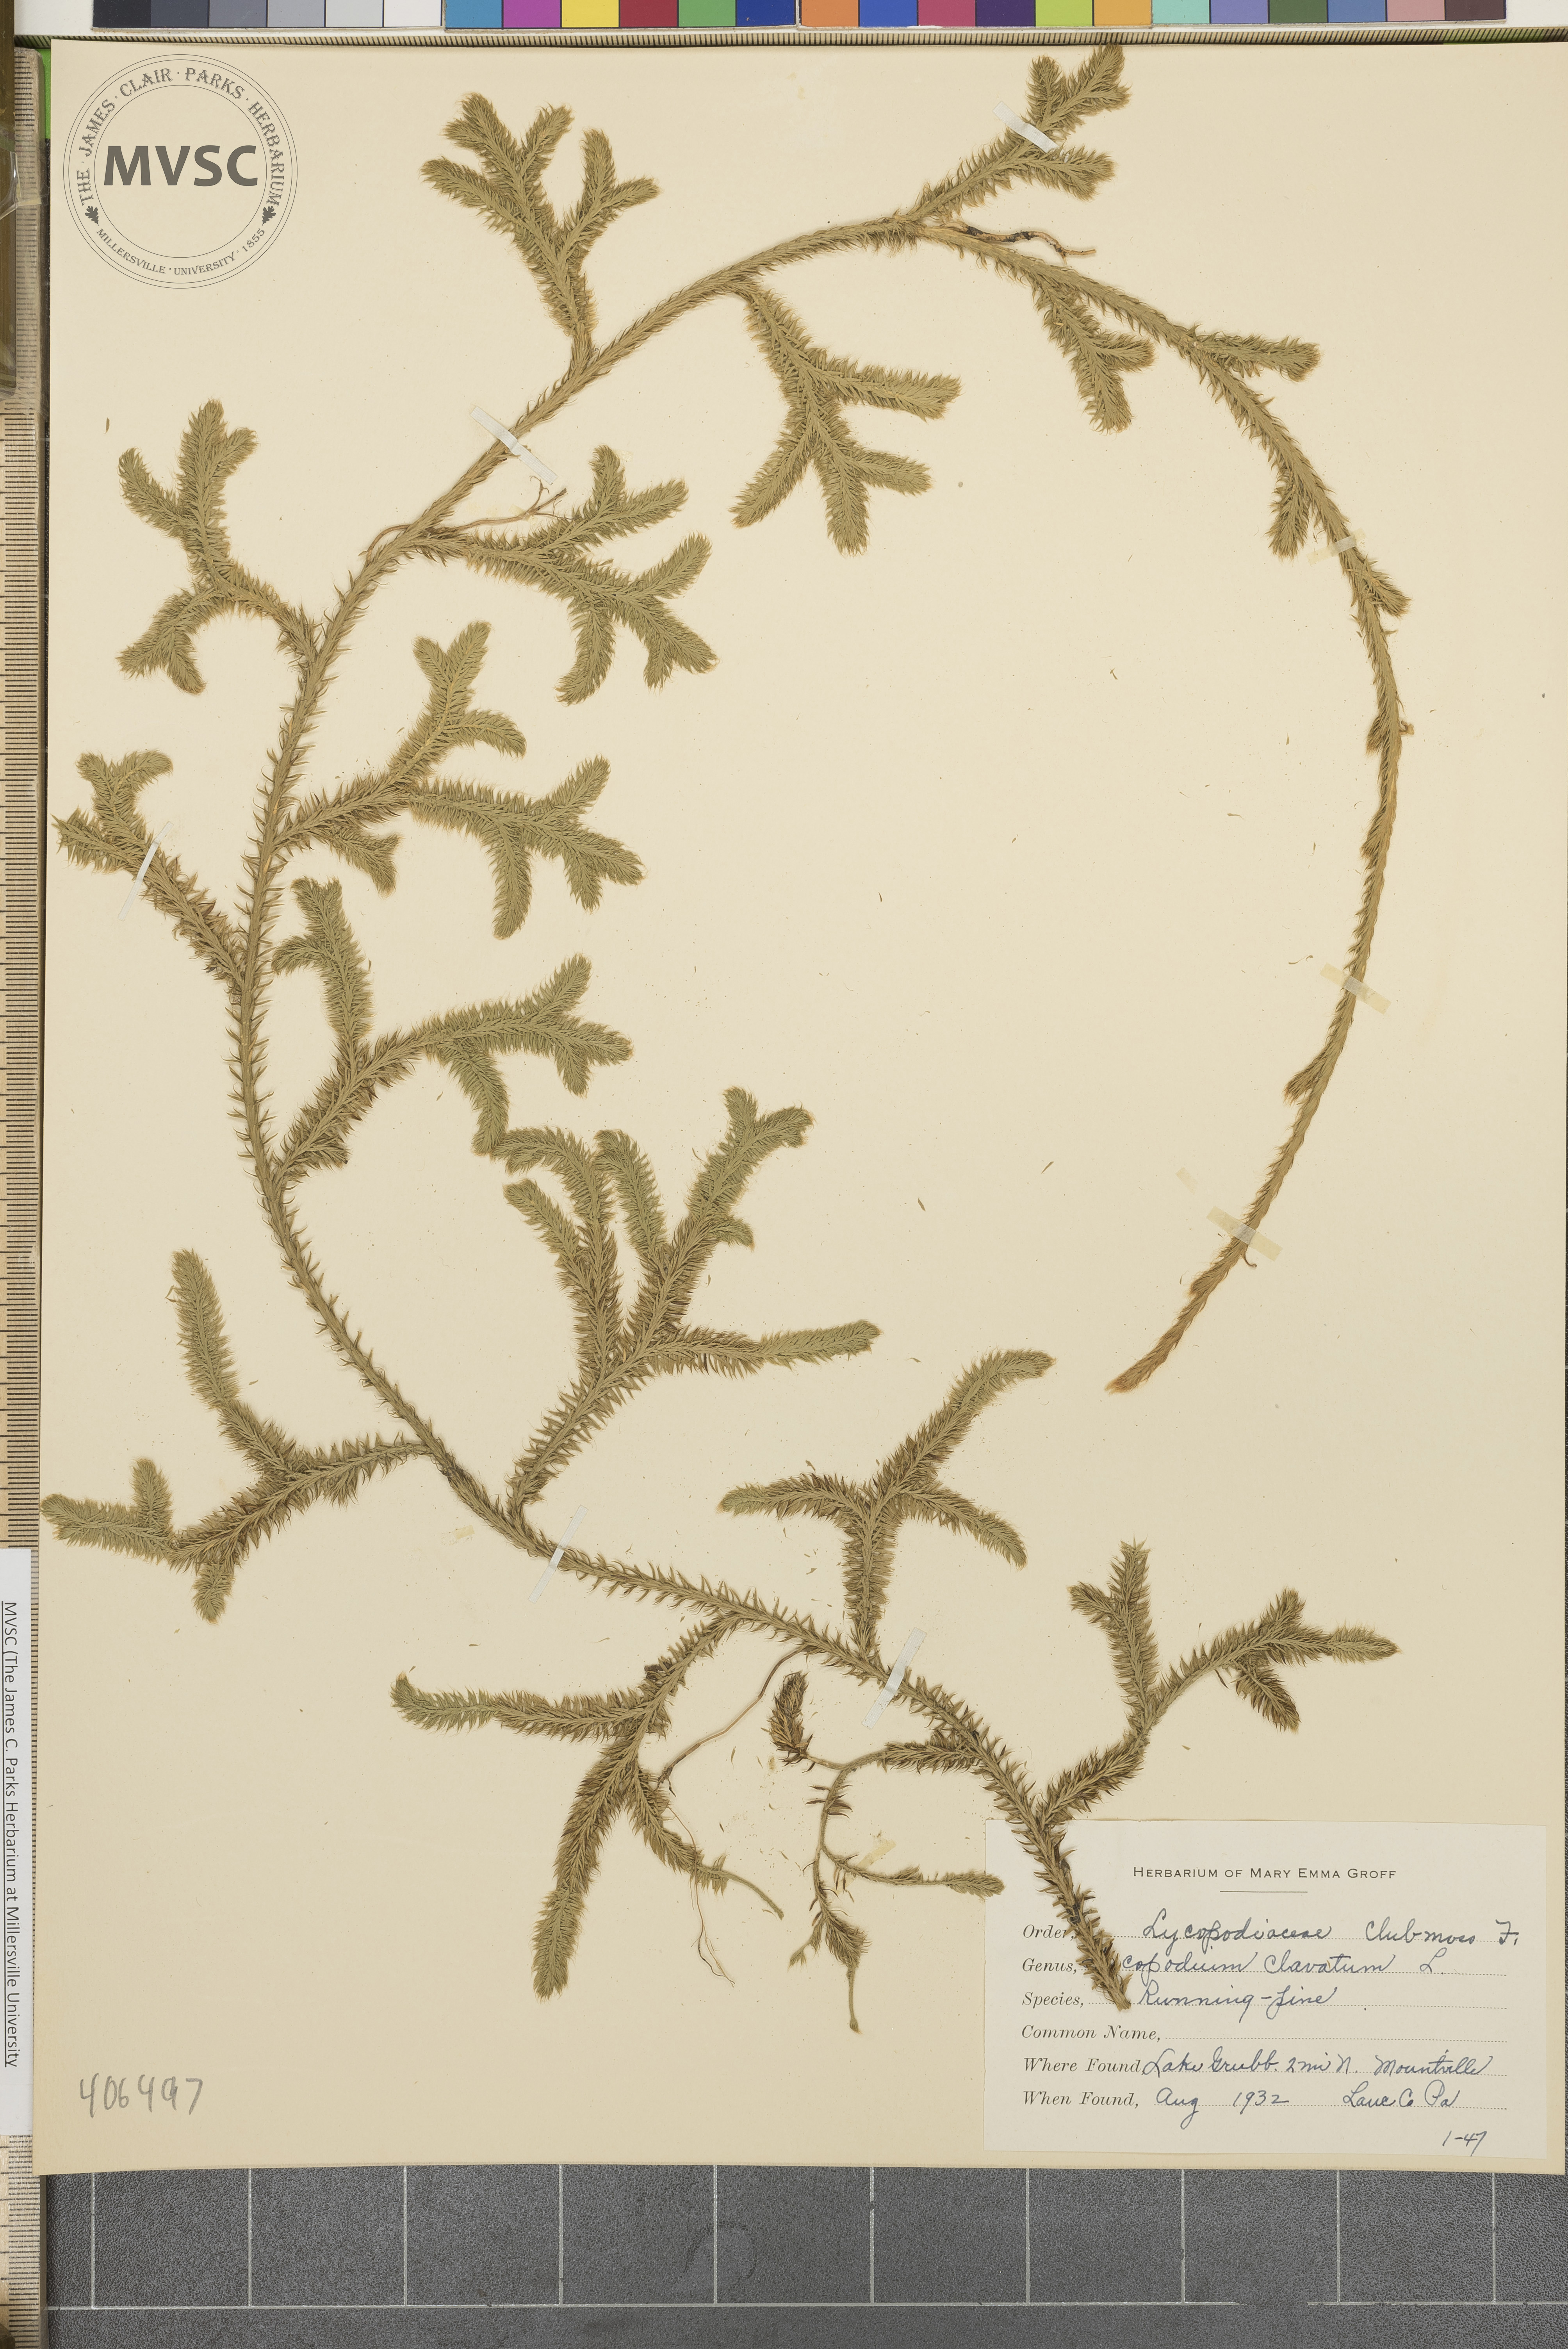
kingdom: Plantae
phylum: Tracheophyta
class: Lycopodiopsida
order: Lycopodiales
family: Lycopodiaceae
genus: Lycopodium
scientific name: Lycopodium clavatum
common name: Stag's-horn clubmoss
